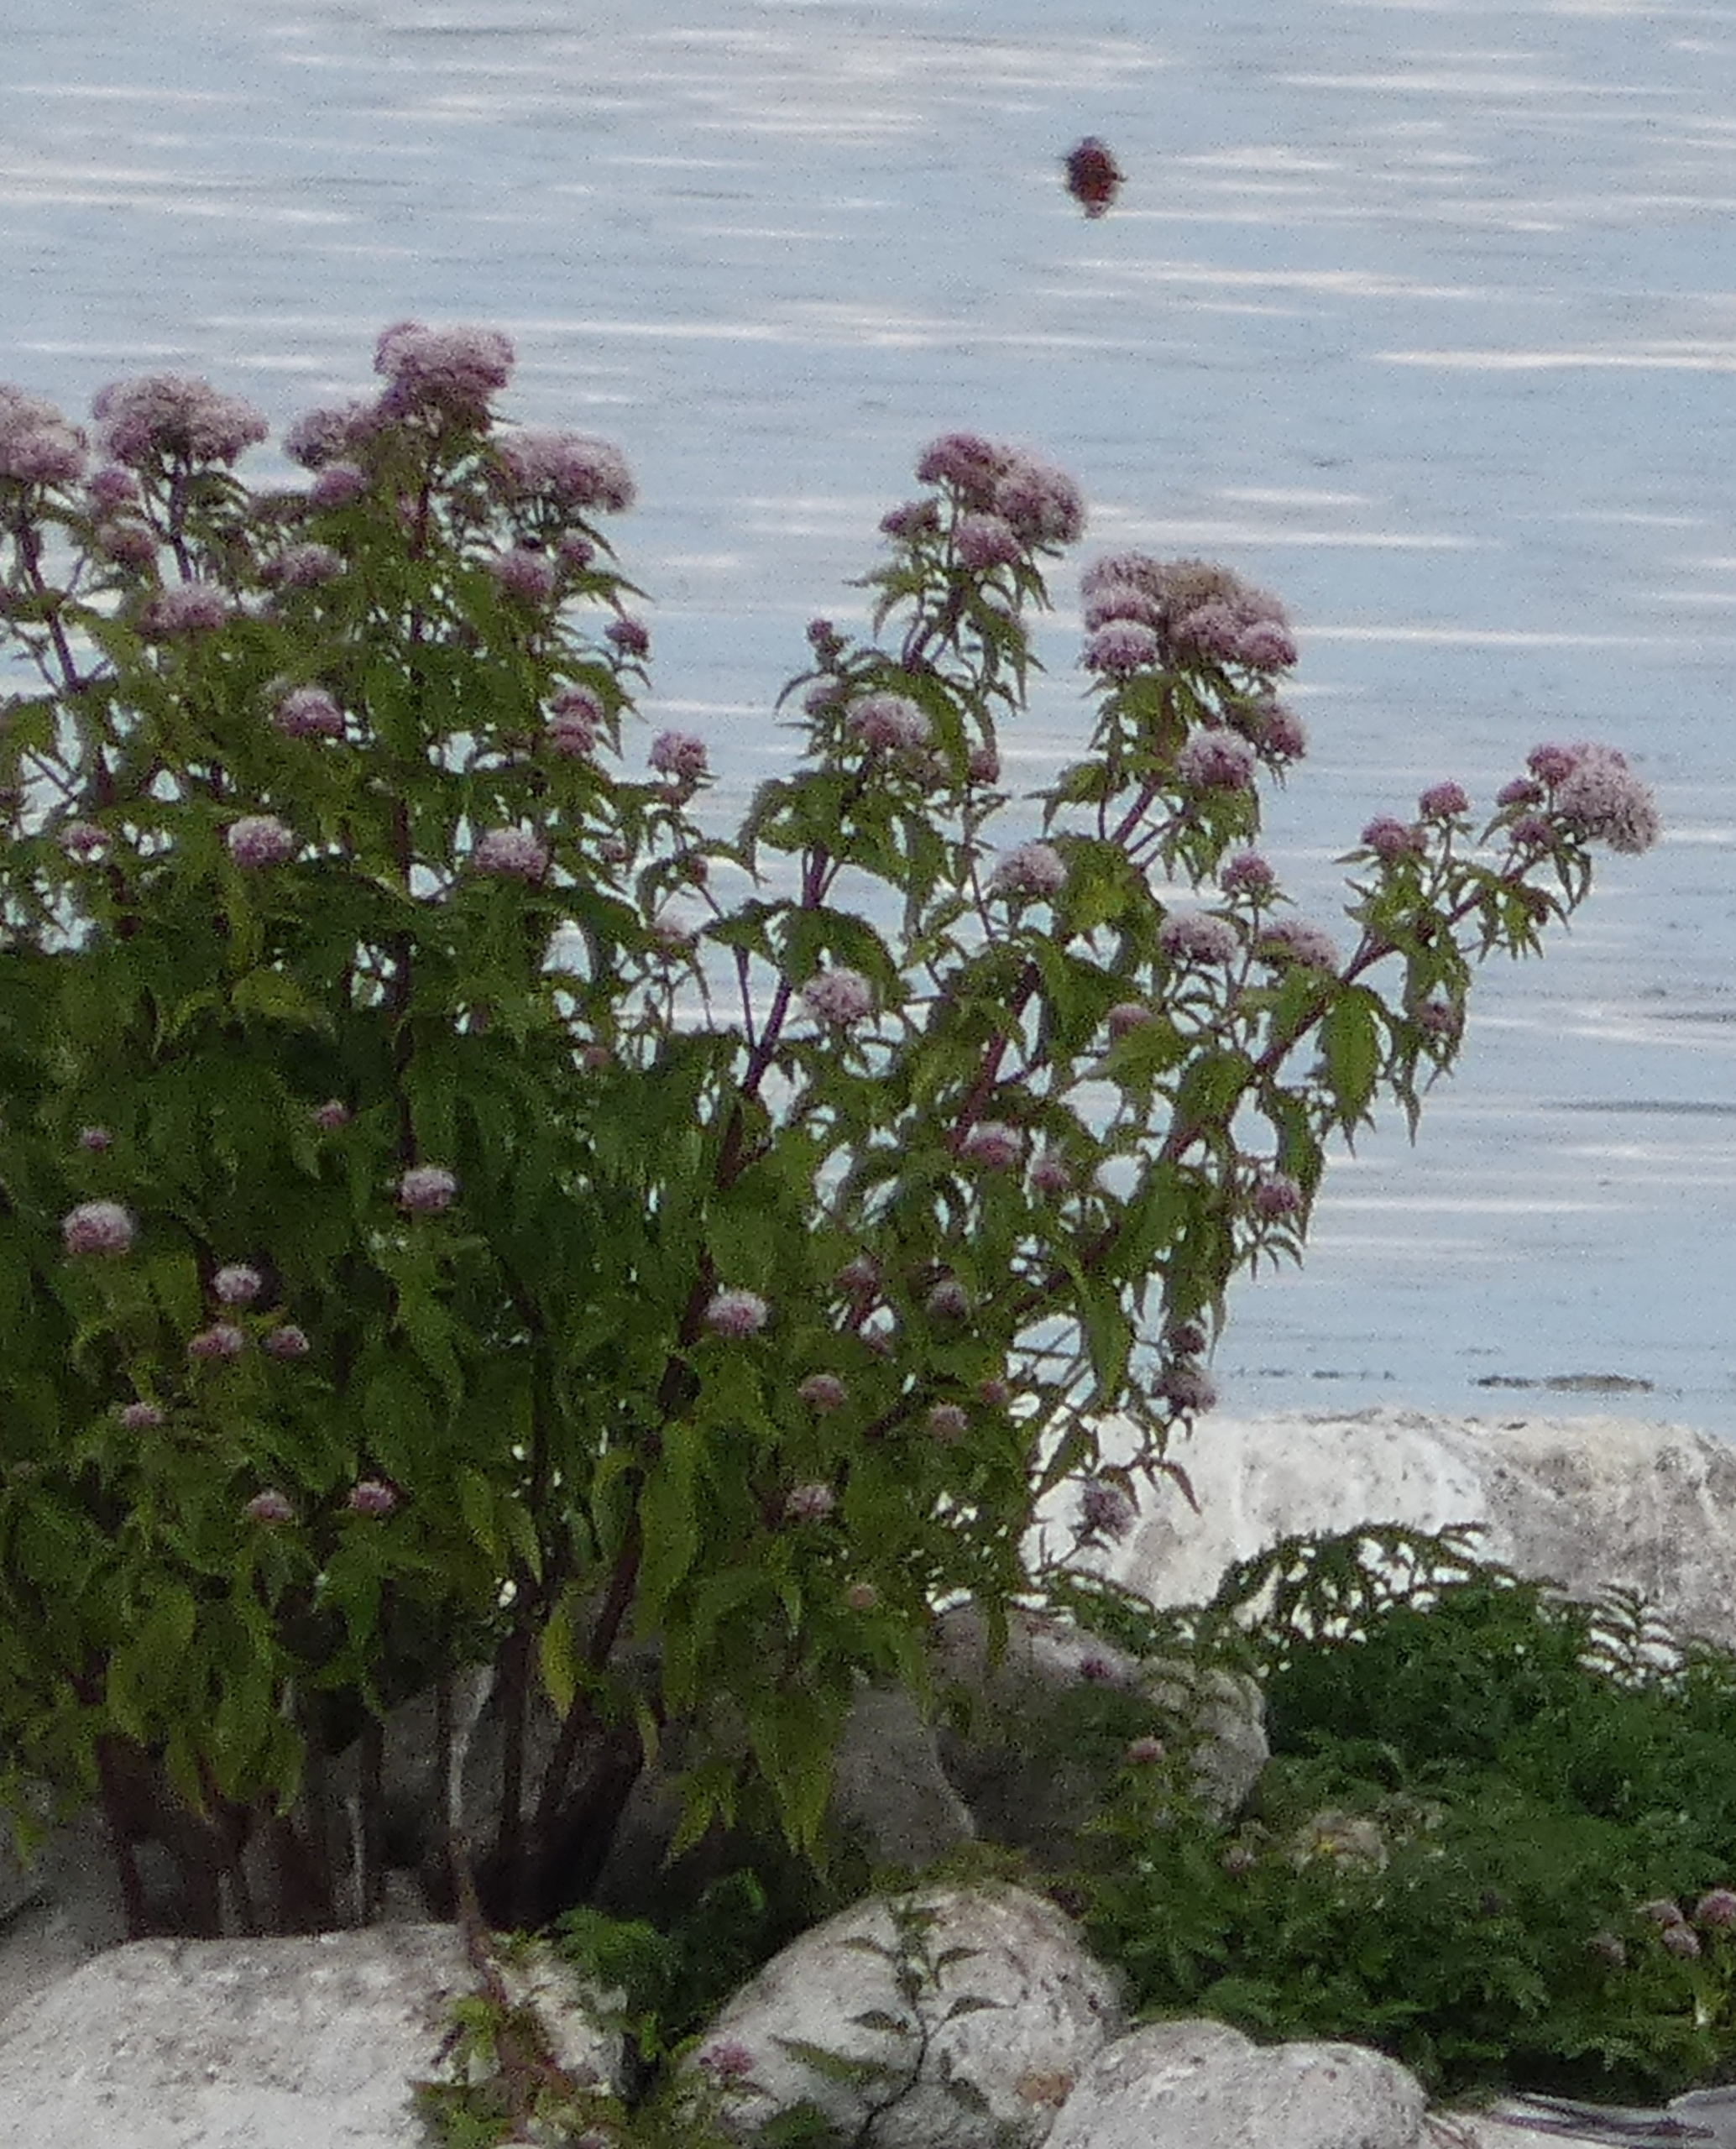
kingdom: Plantae
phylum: Tracheophyta
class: Magnoliopsida
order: Asterales
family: Asteraceae
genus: Eupatorium
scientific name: Eupatorium cannabinum
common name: Hjortetrøst
